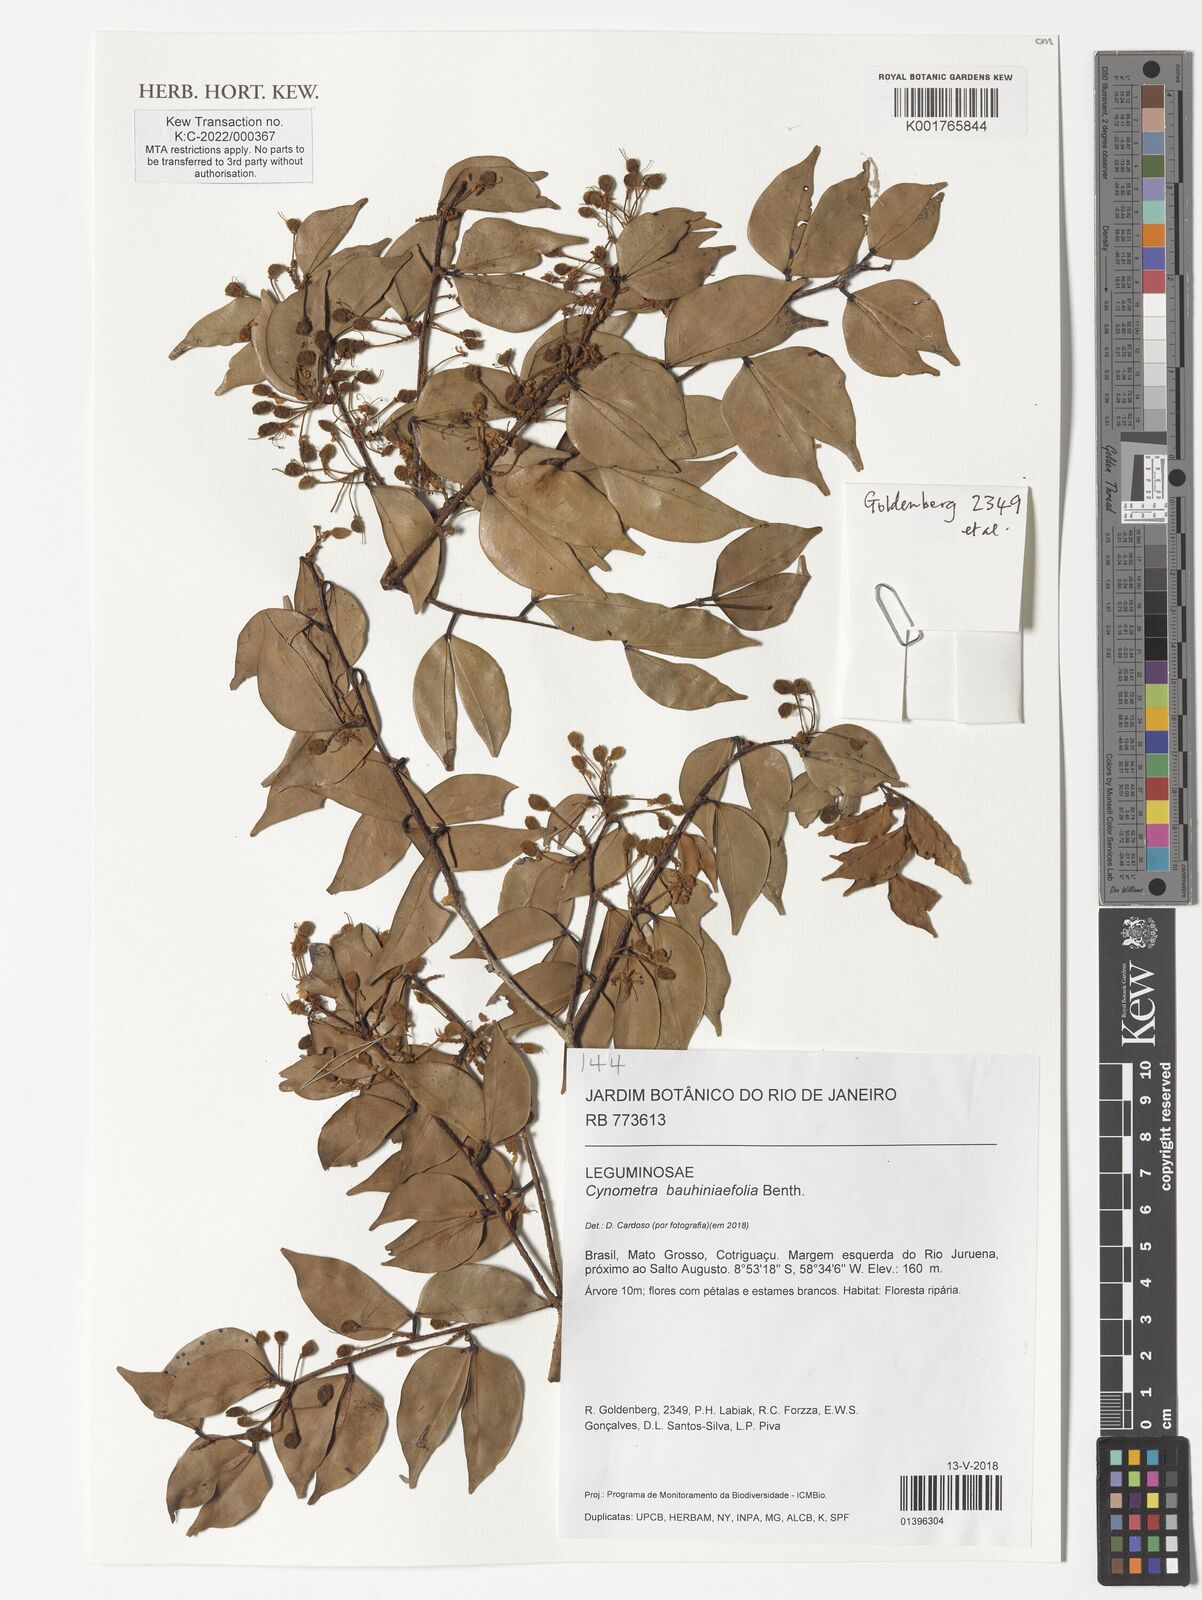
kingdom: Plantae
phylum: Tracheophyta
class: Magnoliopsida
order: Fabales
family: Fabaceae
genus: Cynometra
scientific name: Cynometra bauhiniifolia
